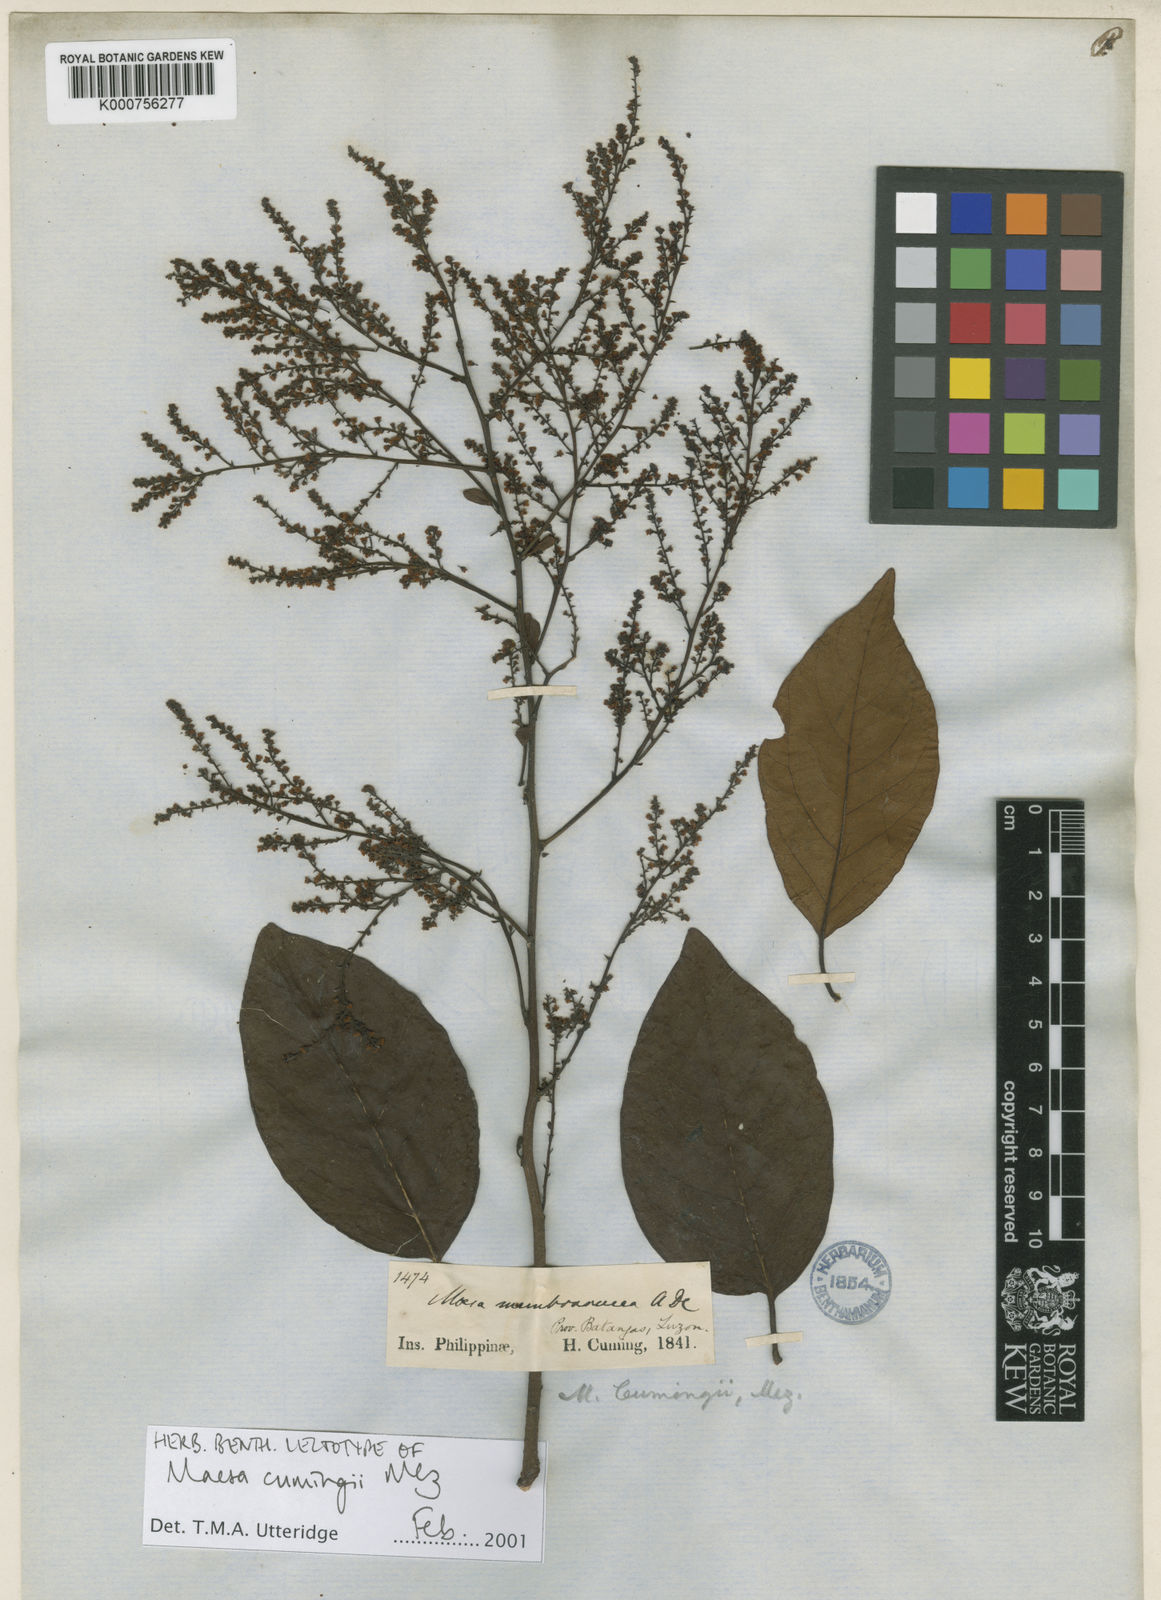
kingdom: Plantae
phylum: Tracheophyta
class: Magnoliopsida
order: Ericales
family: Primulaceae
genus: Maesa
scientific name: Maesa cumingii
